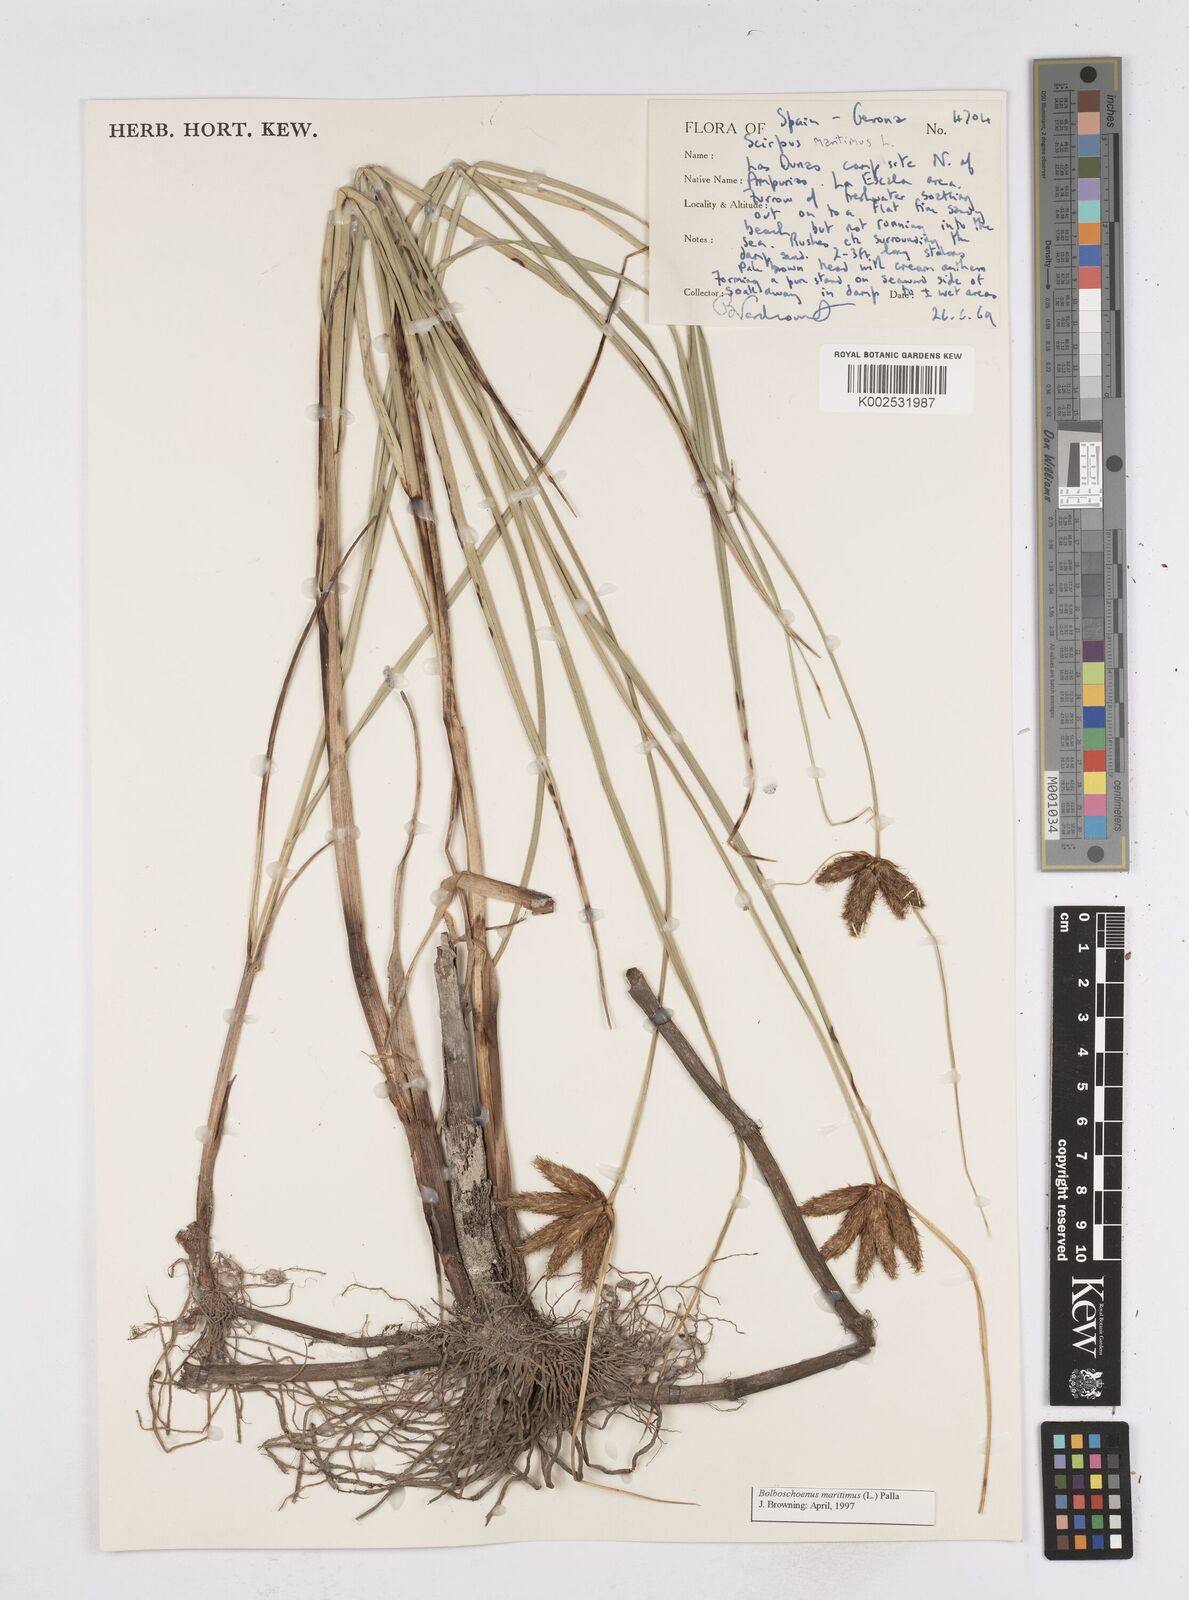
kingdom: Plantae
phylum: Tracheophyta
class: Liliopsida
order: Poales
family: Cyperaceae
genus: Bolboschoenus
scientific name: Bolboschoenus maritimus
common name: Sea club-rush
